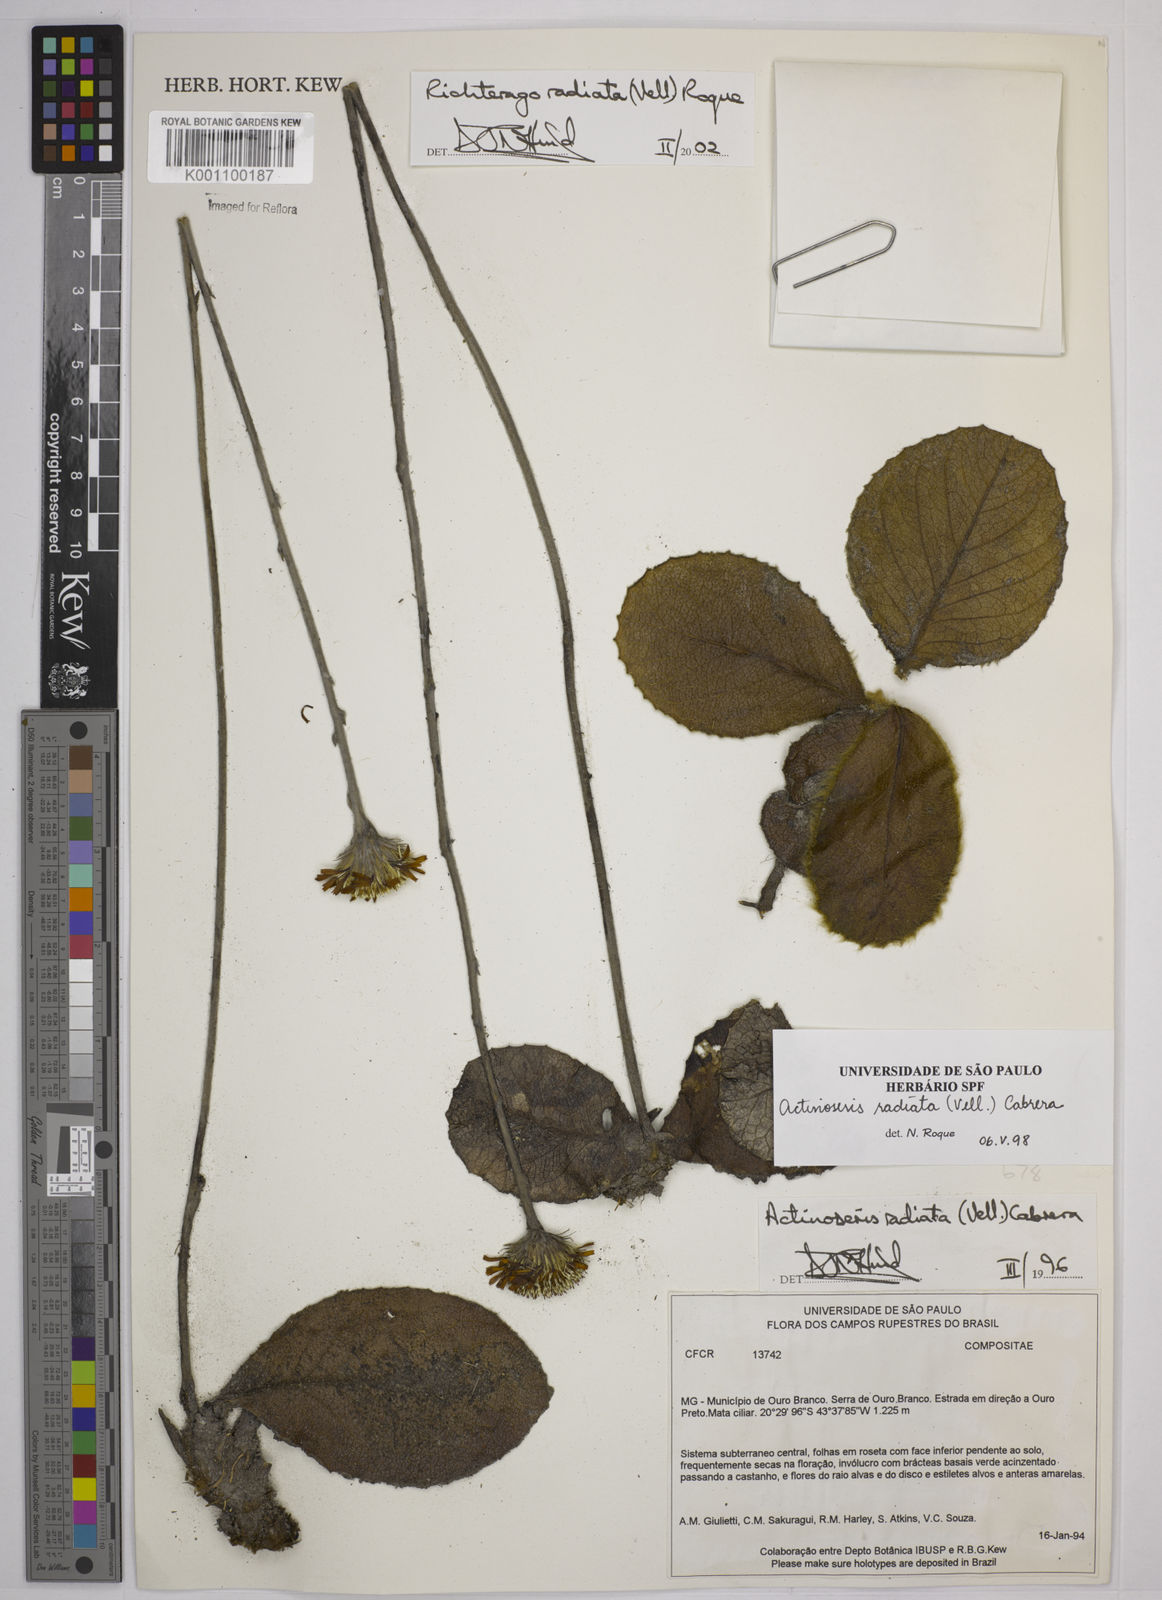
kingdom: Plantae
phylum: Tracheophyta
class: Magnoliopsida
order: Asterales
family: Asteraceae
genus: Richterago
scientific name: Richterago radiata
